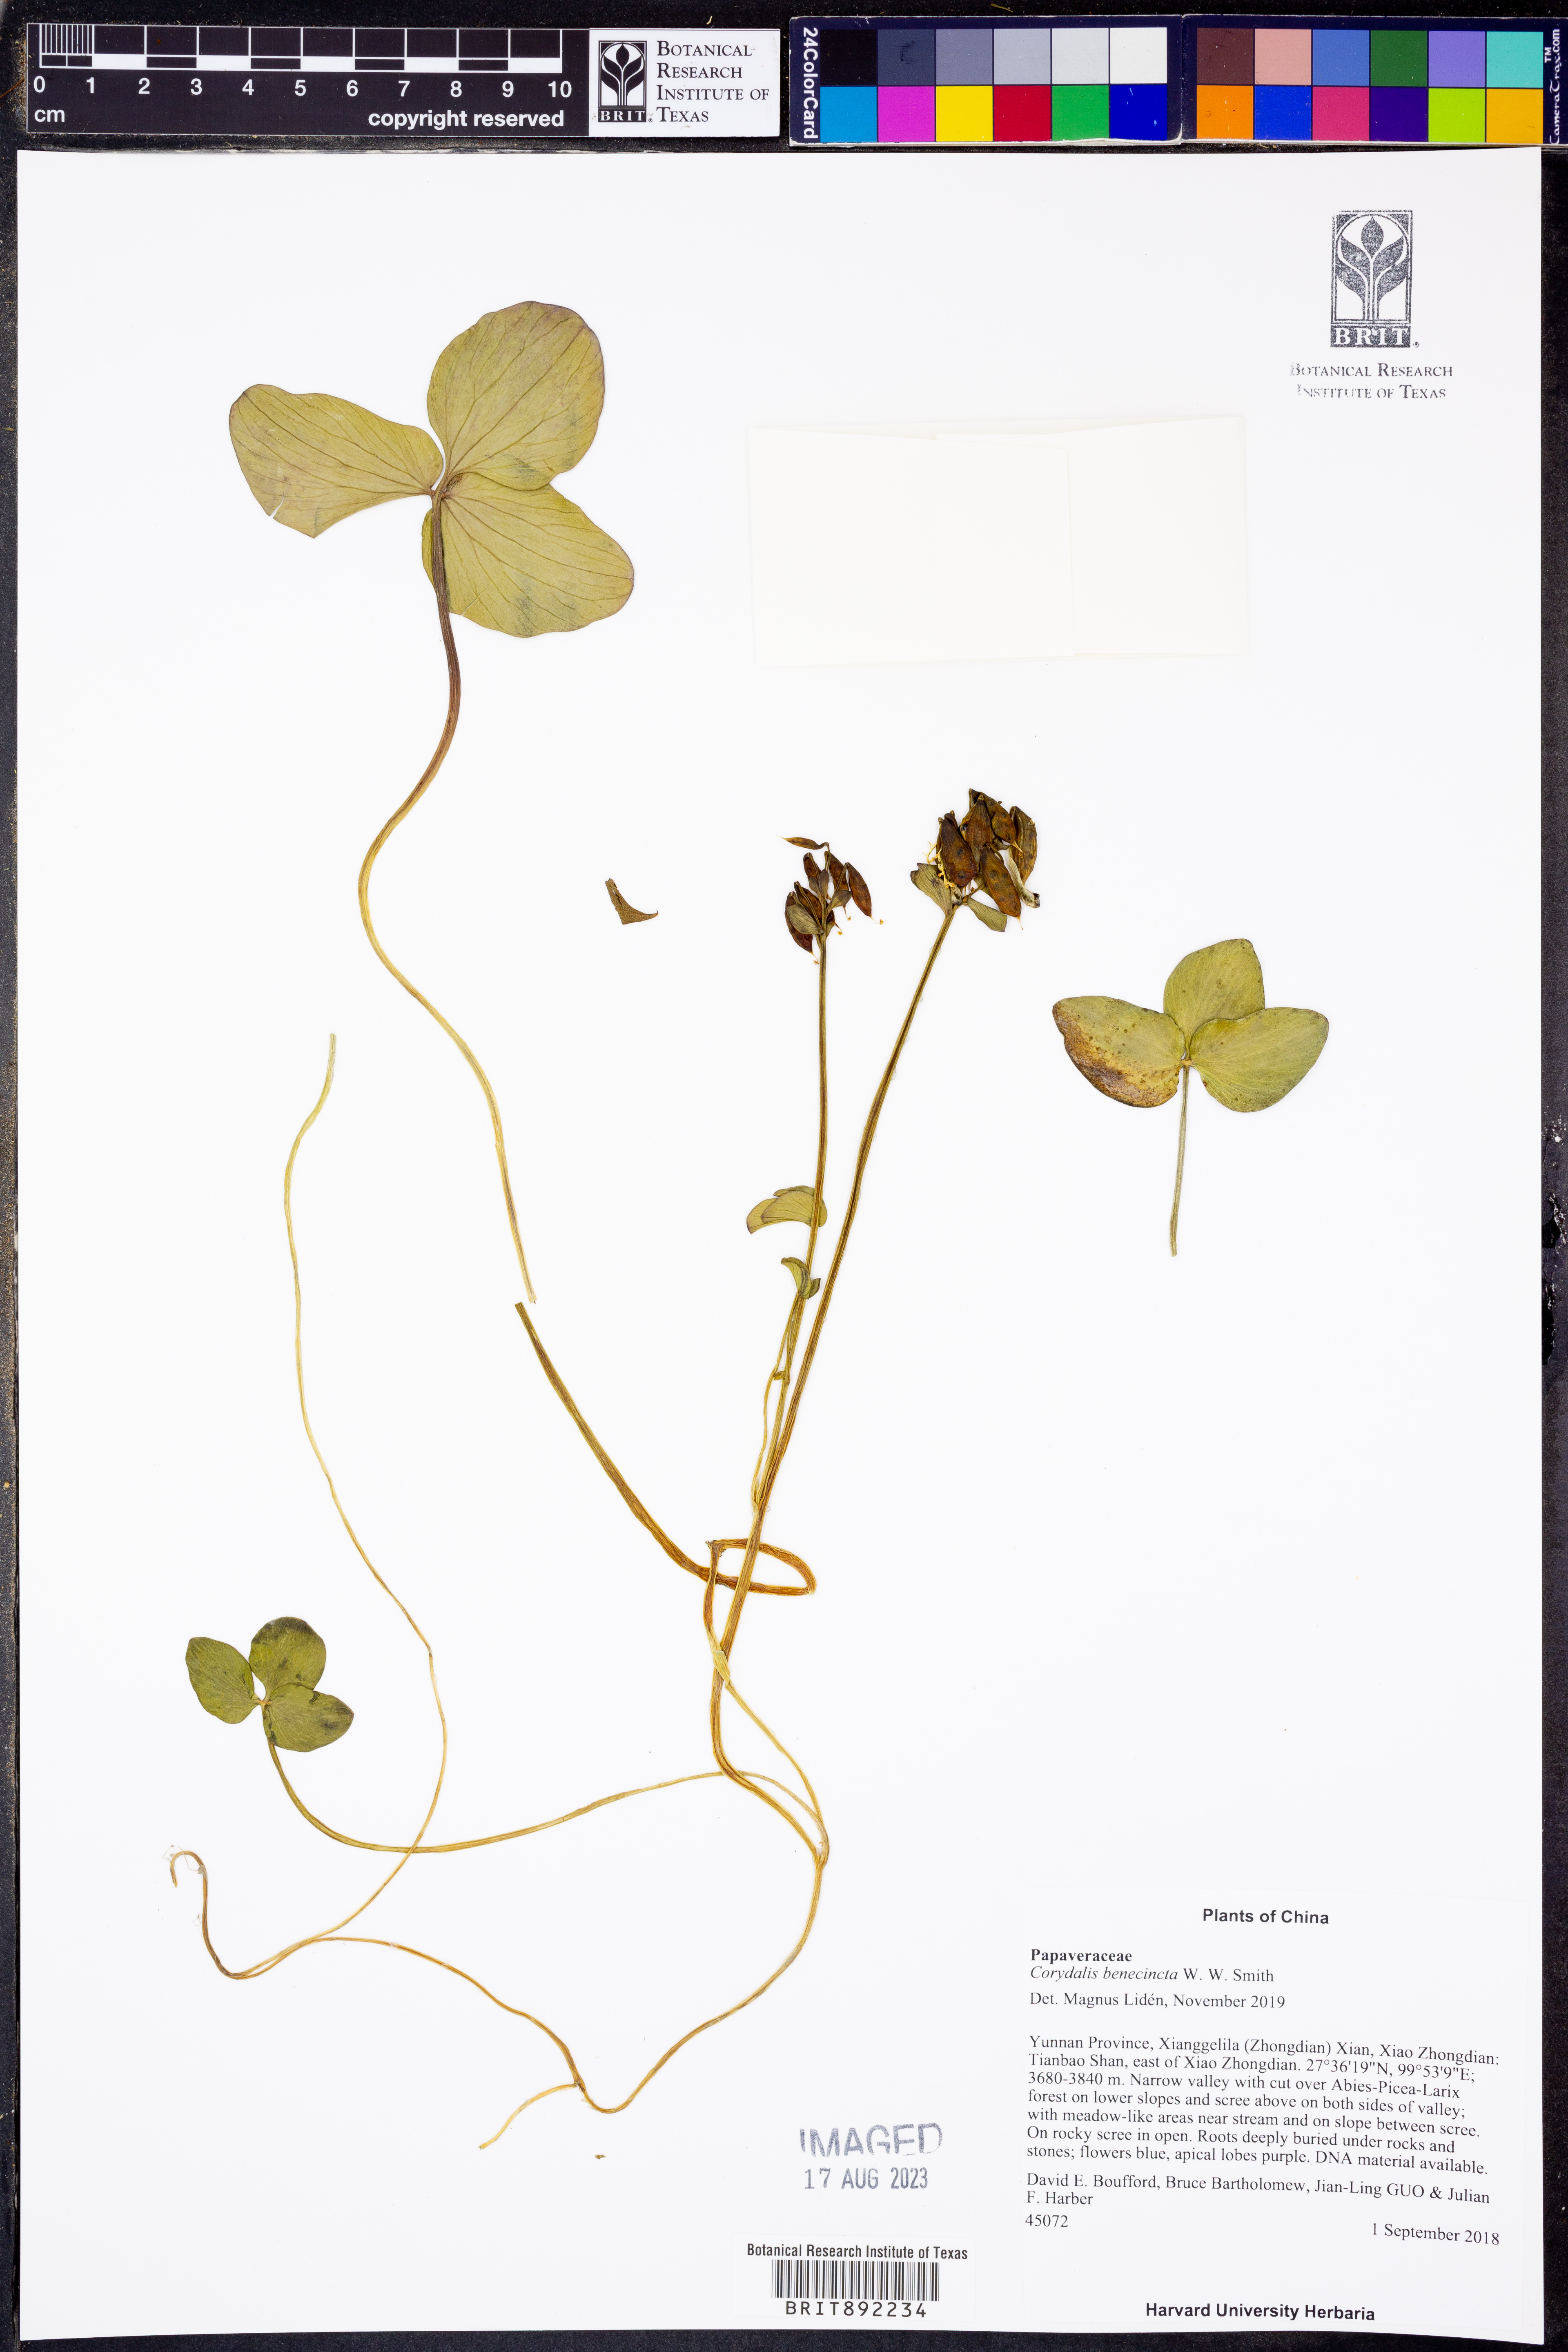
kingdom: Plantae
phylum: Tracheophyta
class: Magnoliopsida
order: Ranunculales
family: Papaveraceae
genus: Corydalis
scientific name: Corydalis benecincta
